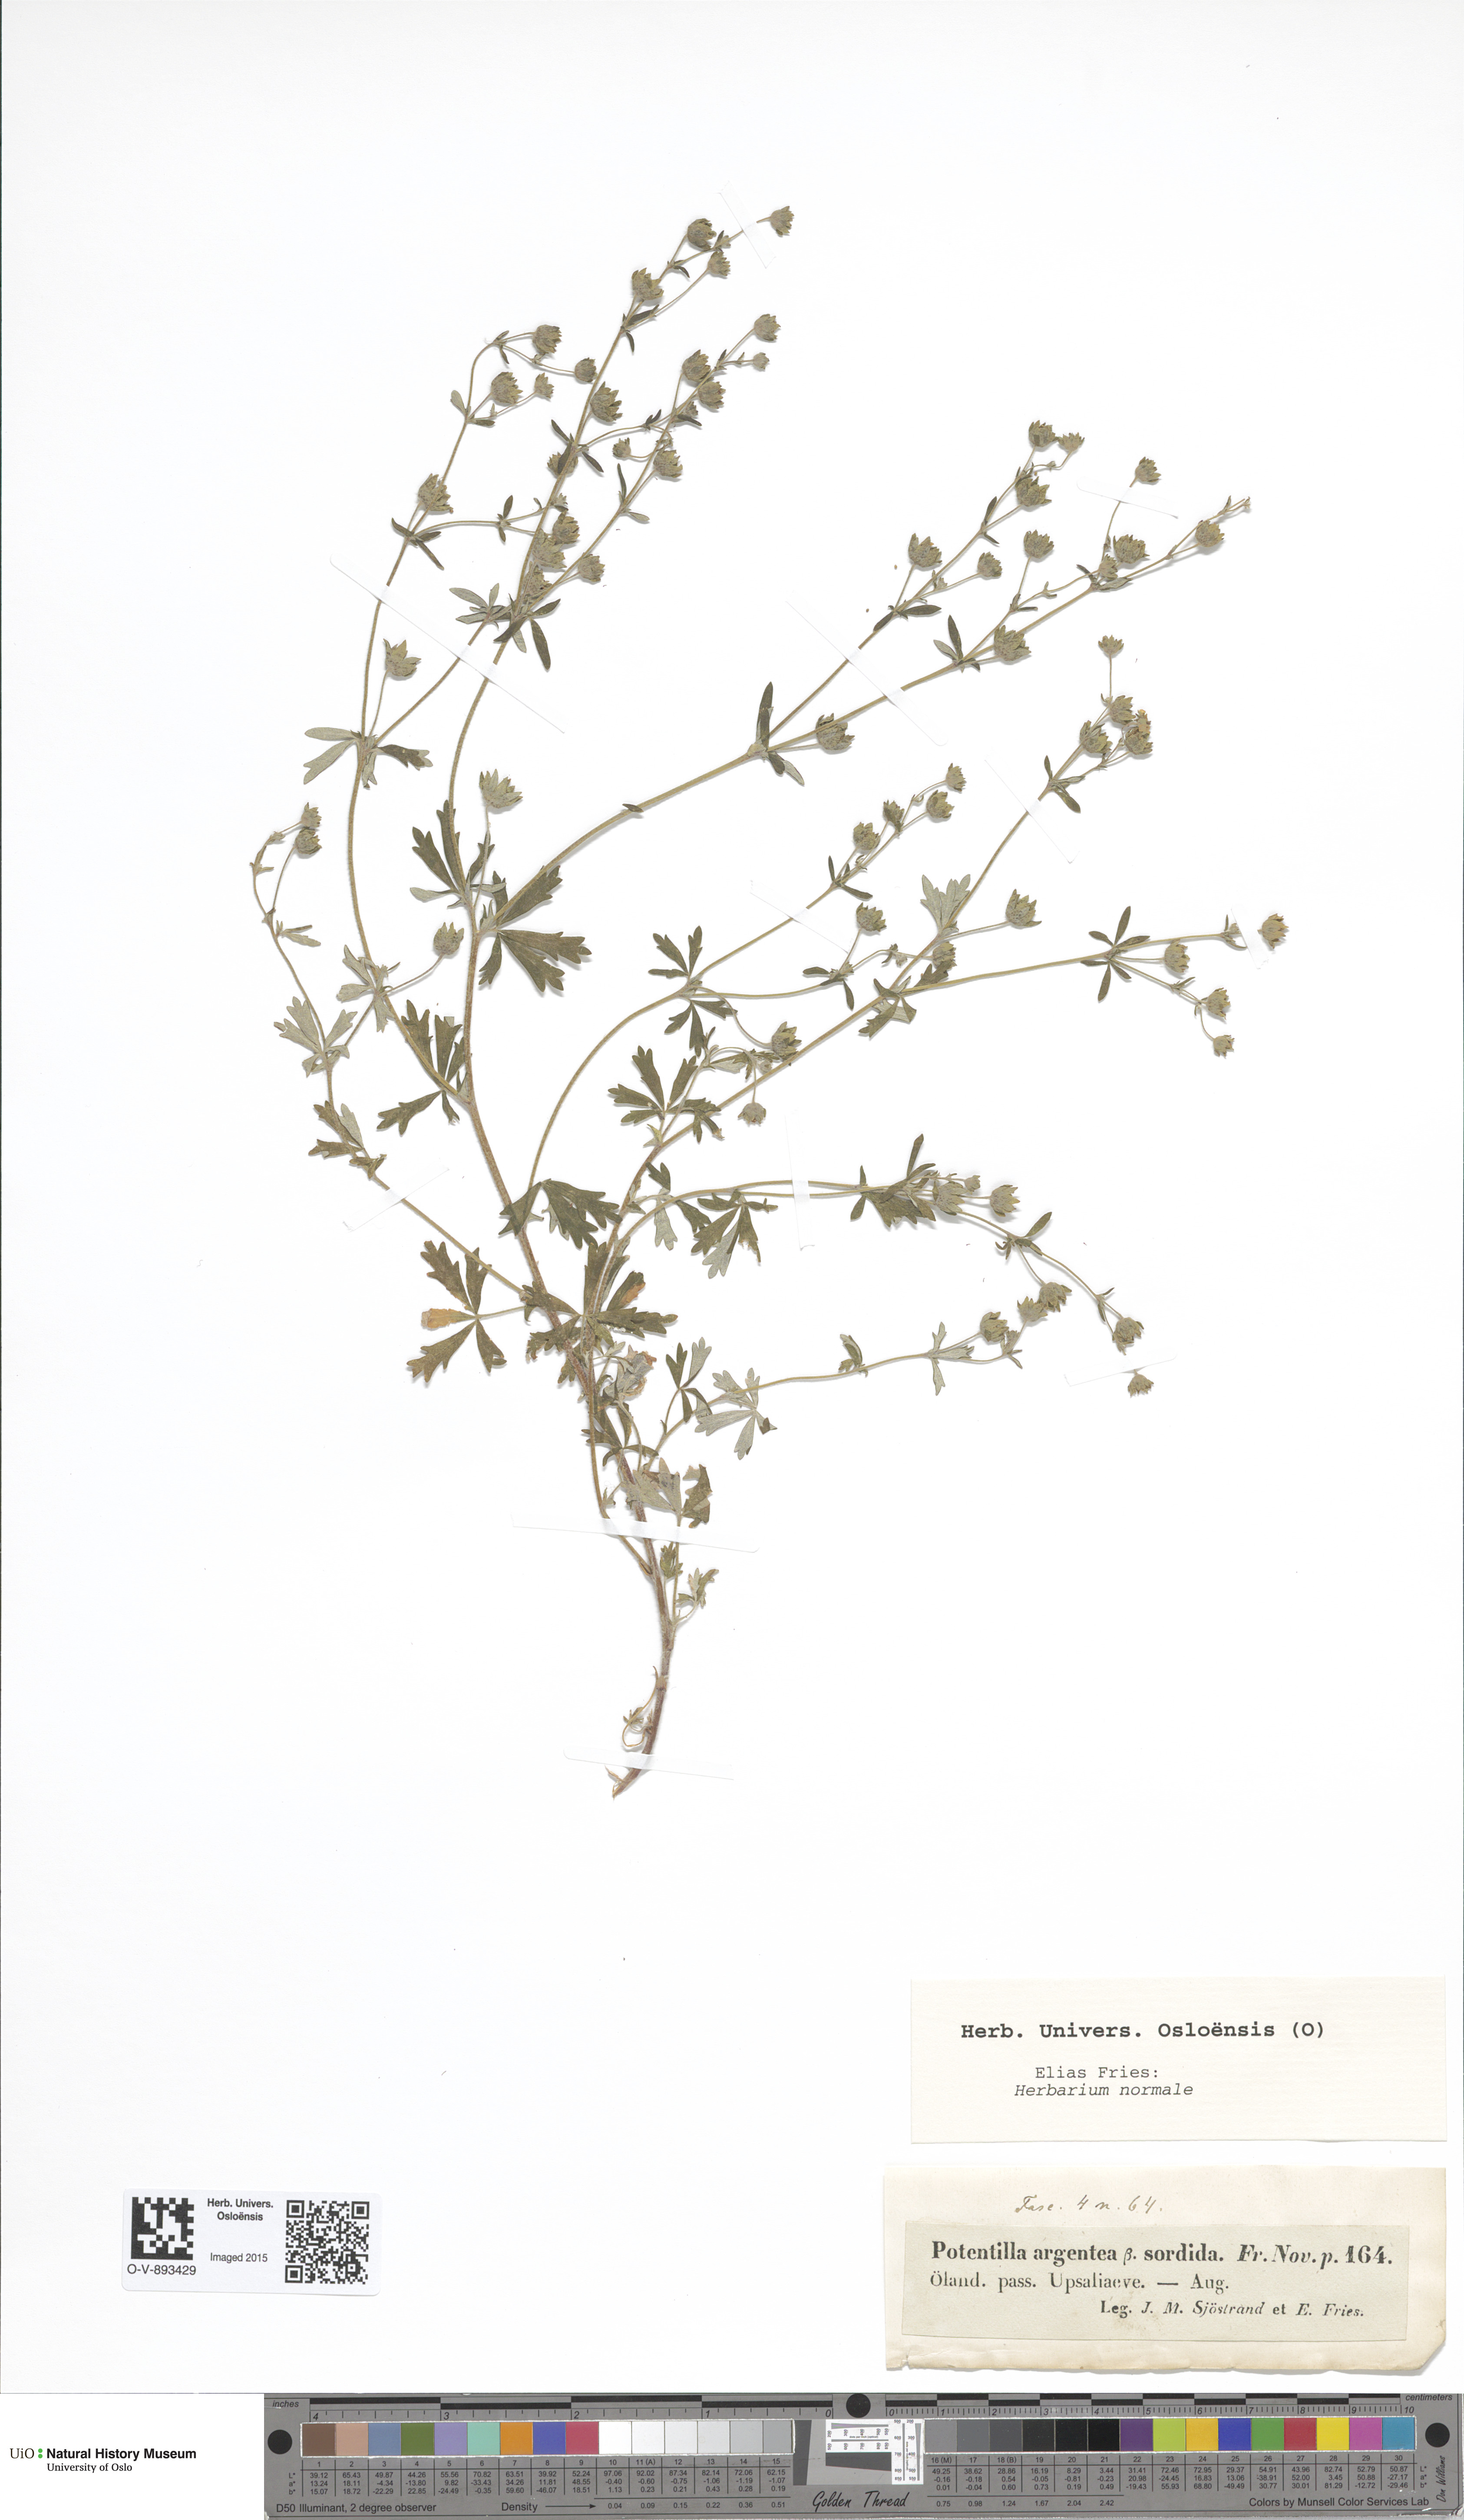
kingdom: Plantae
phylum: Tracheophyta
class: Magnoliopsida
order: Rosales
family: Rosaceae
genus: Potentilla
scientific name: Potentilla sterneri
